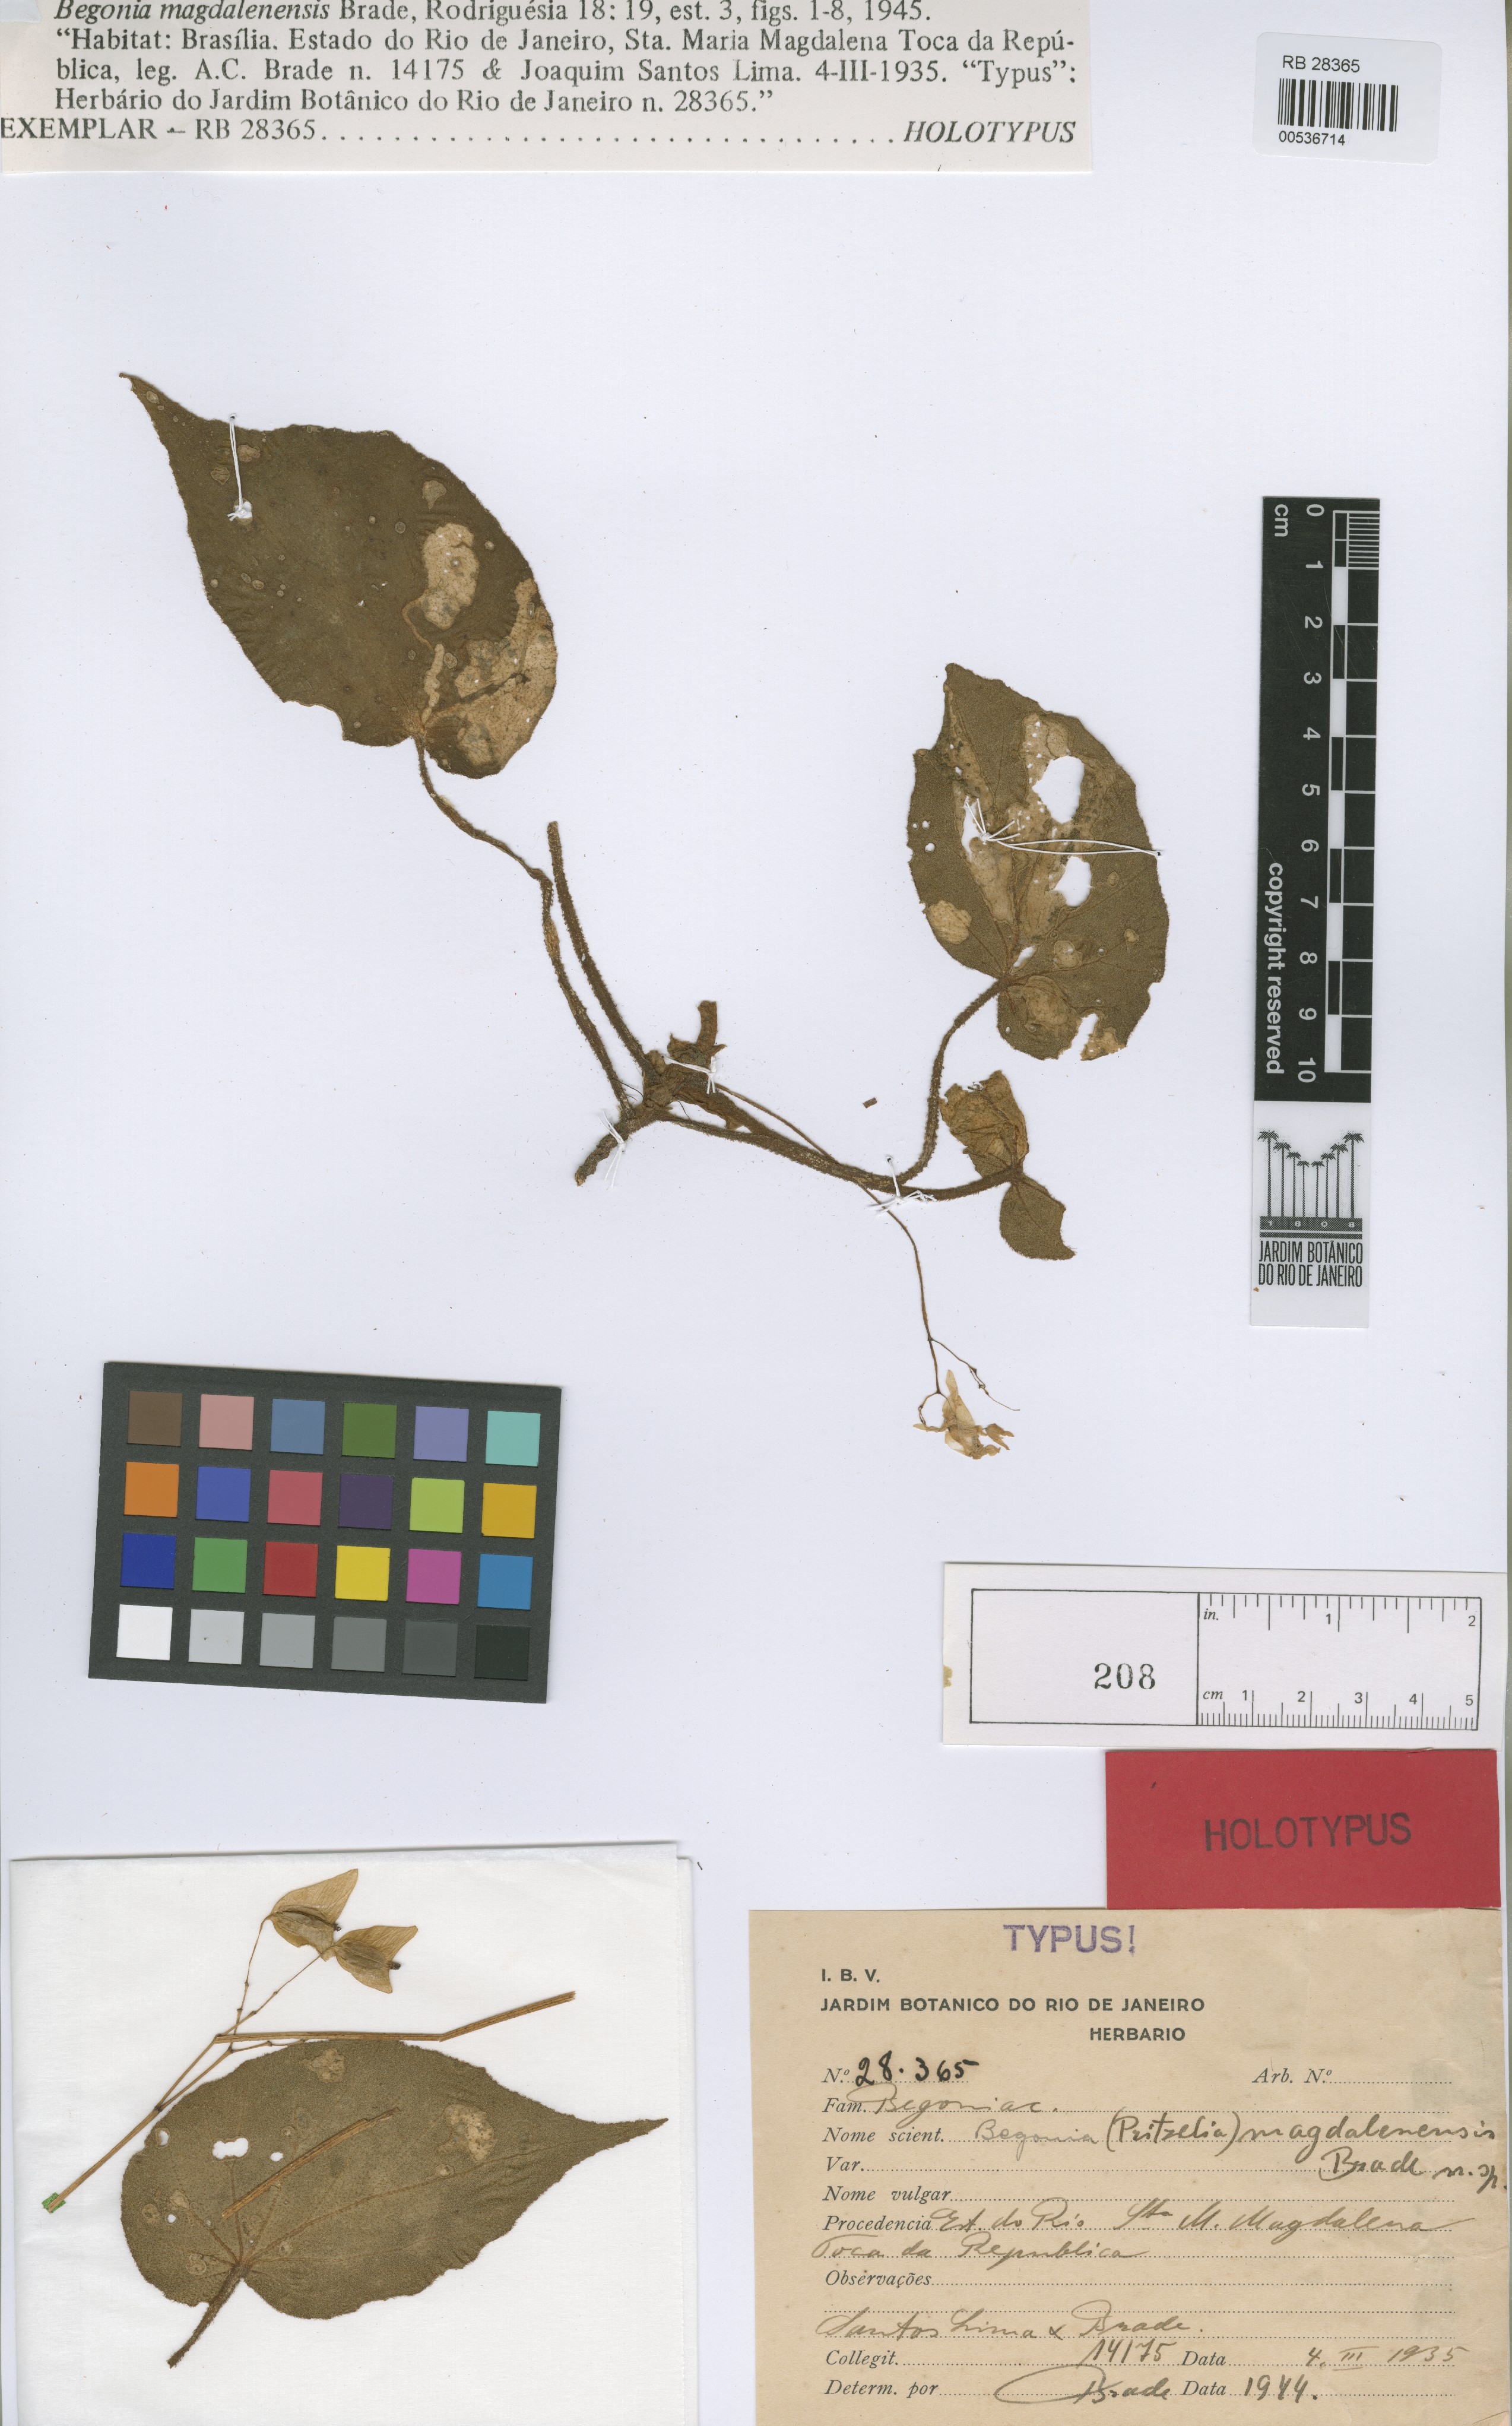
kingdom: Plantae
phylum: Tracheophyta
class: Magnoliopsida
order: Cucurbitales
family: Begoniaceae
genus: Begonia
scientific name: Begonia magdalenensis
